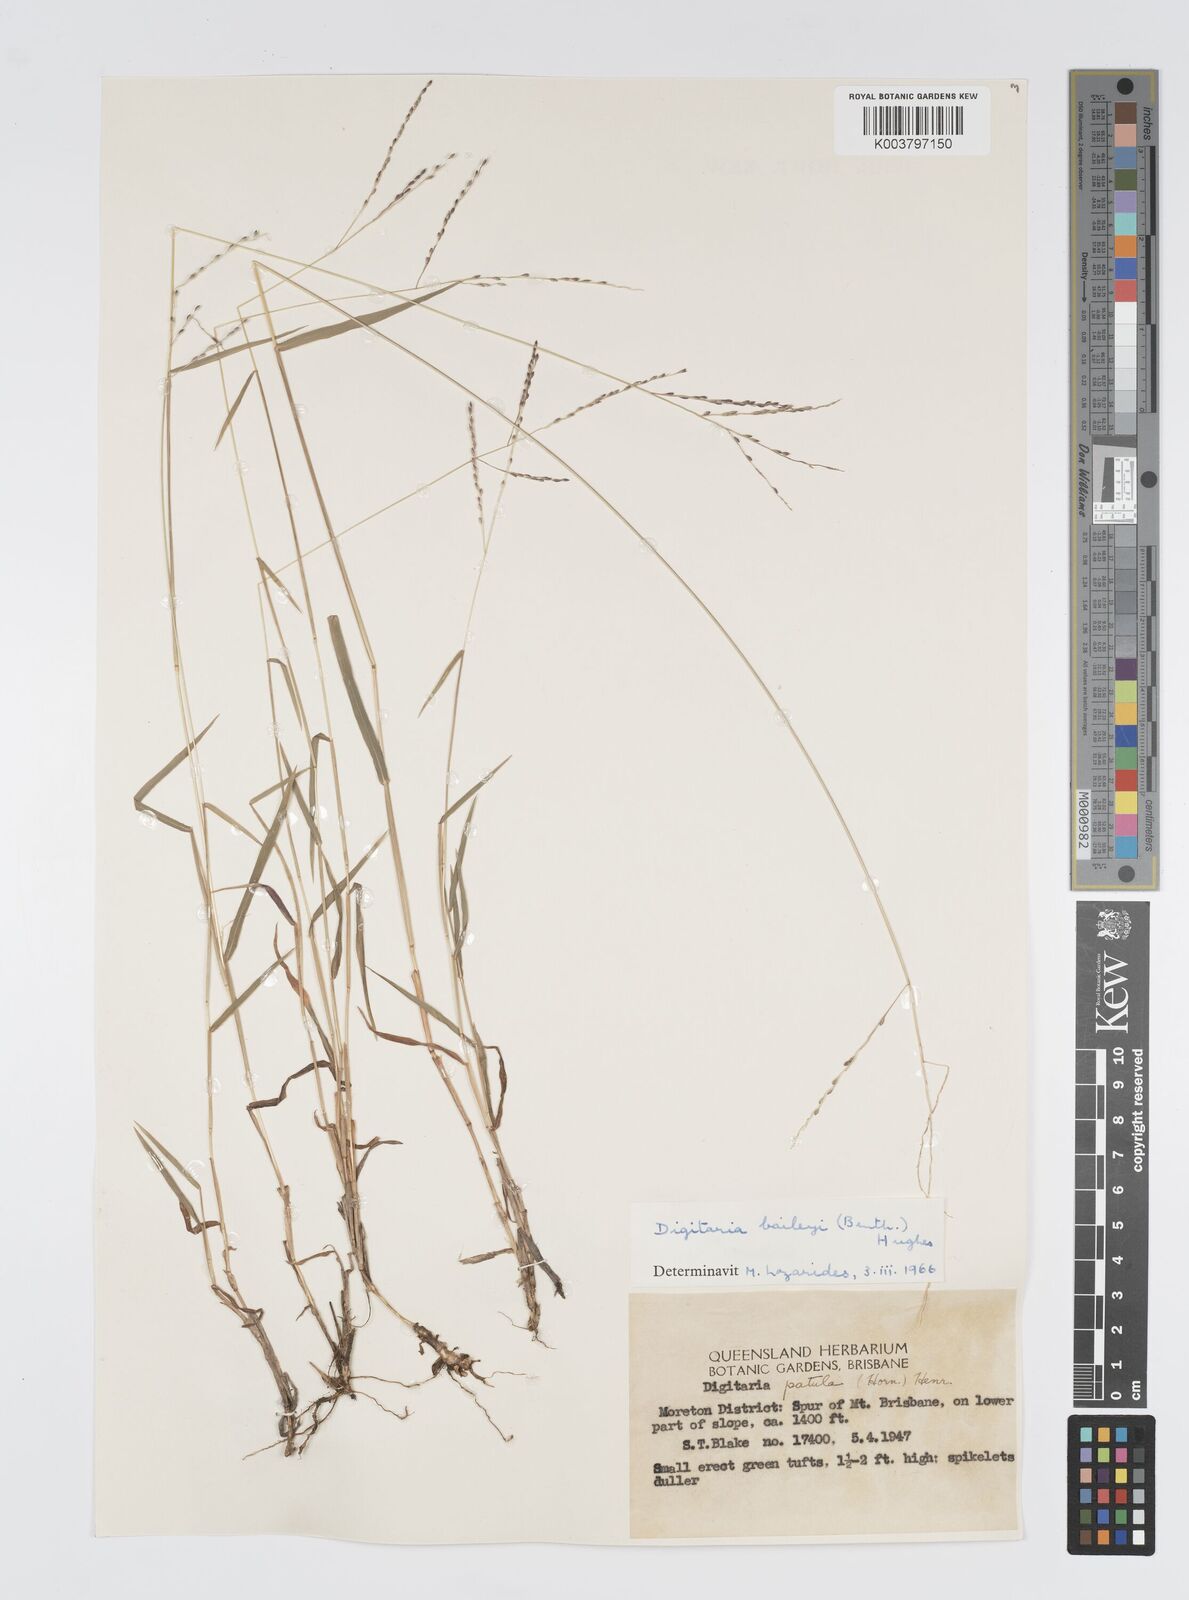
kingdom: Plantae
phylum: Tracheophyta
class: Liliopsida
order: Poales
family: Poaceae
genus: Digitaria
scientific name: Digitaria spec
